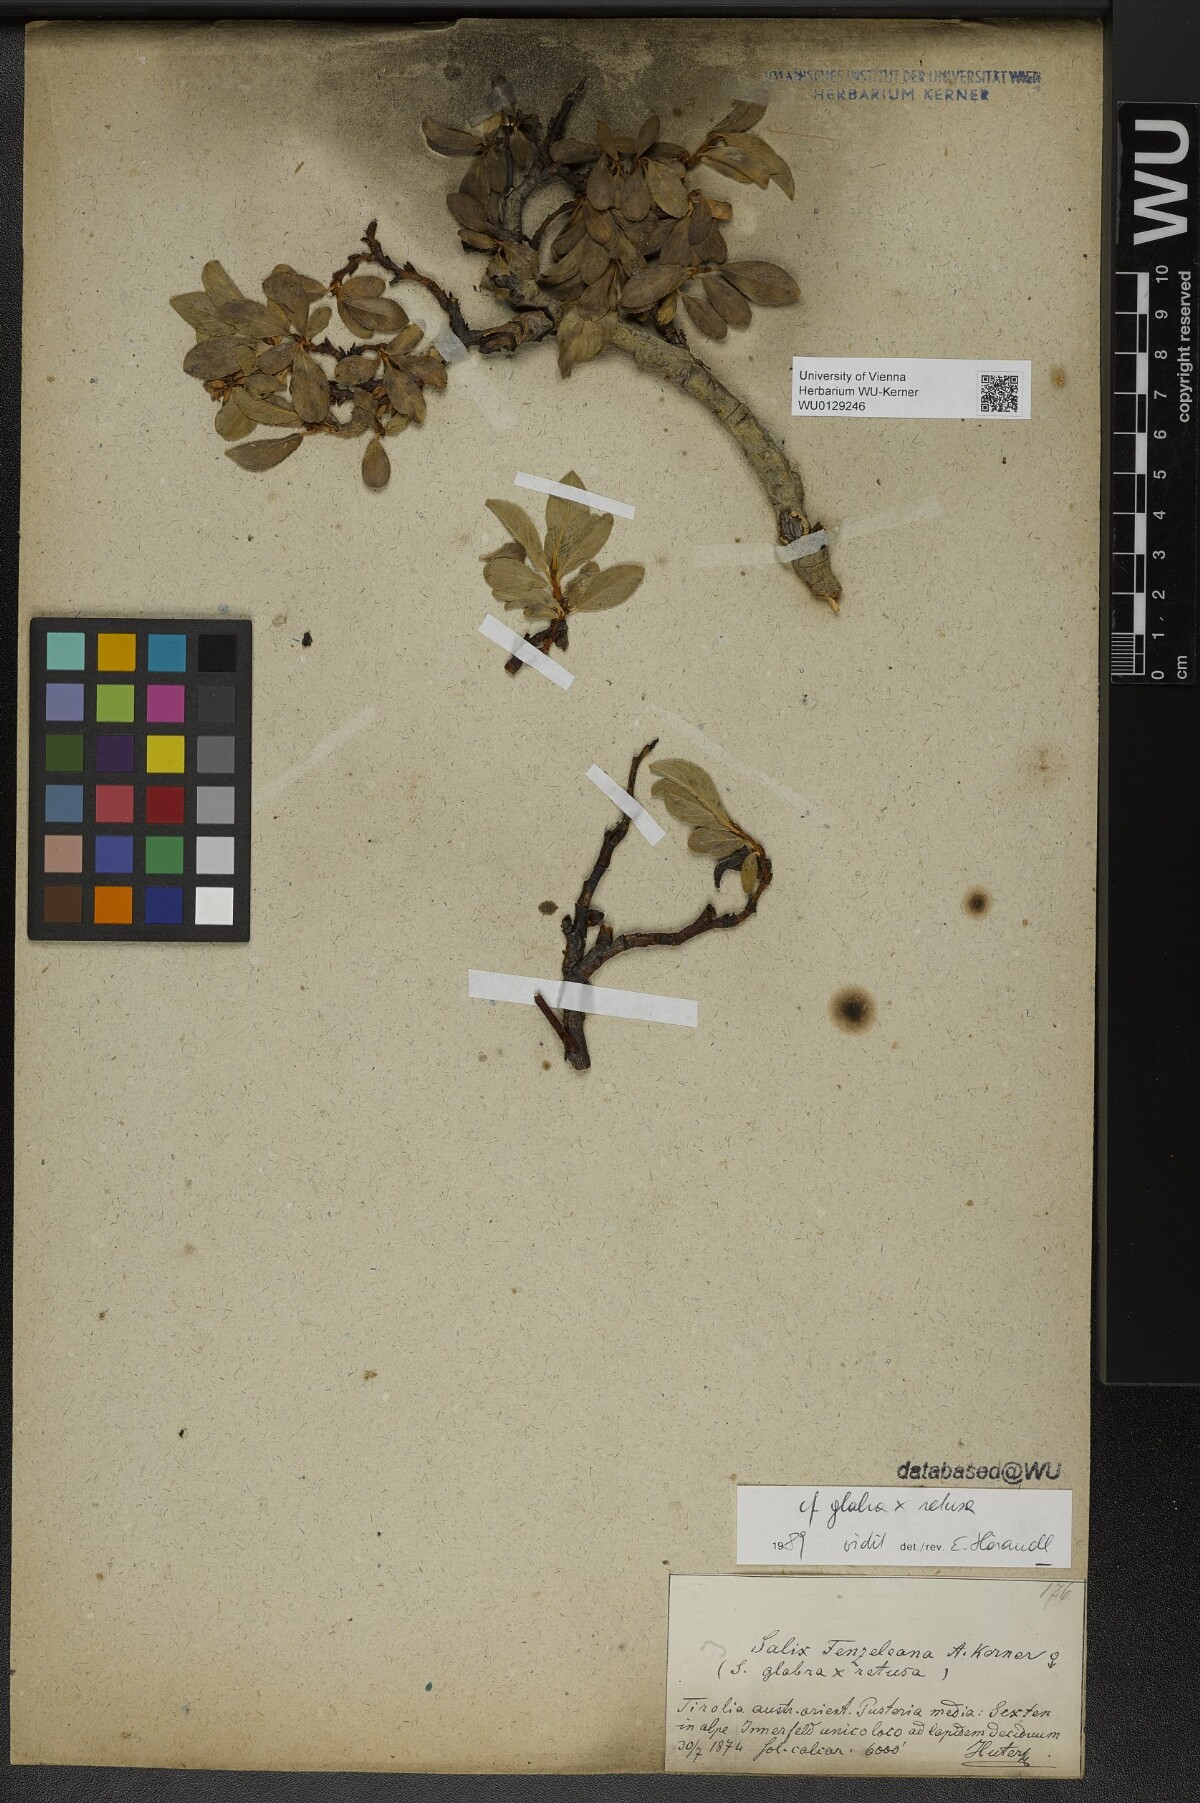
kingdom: Plantae
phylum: Tracheophyta
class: Magnoliopsida
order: Malpighiales
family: Salicaceae
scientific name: Salicaceae
